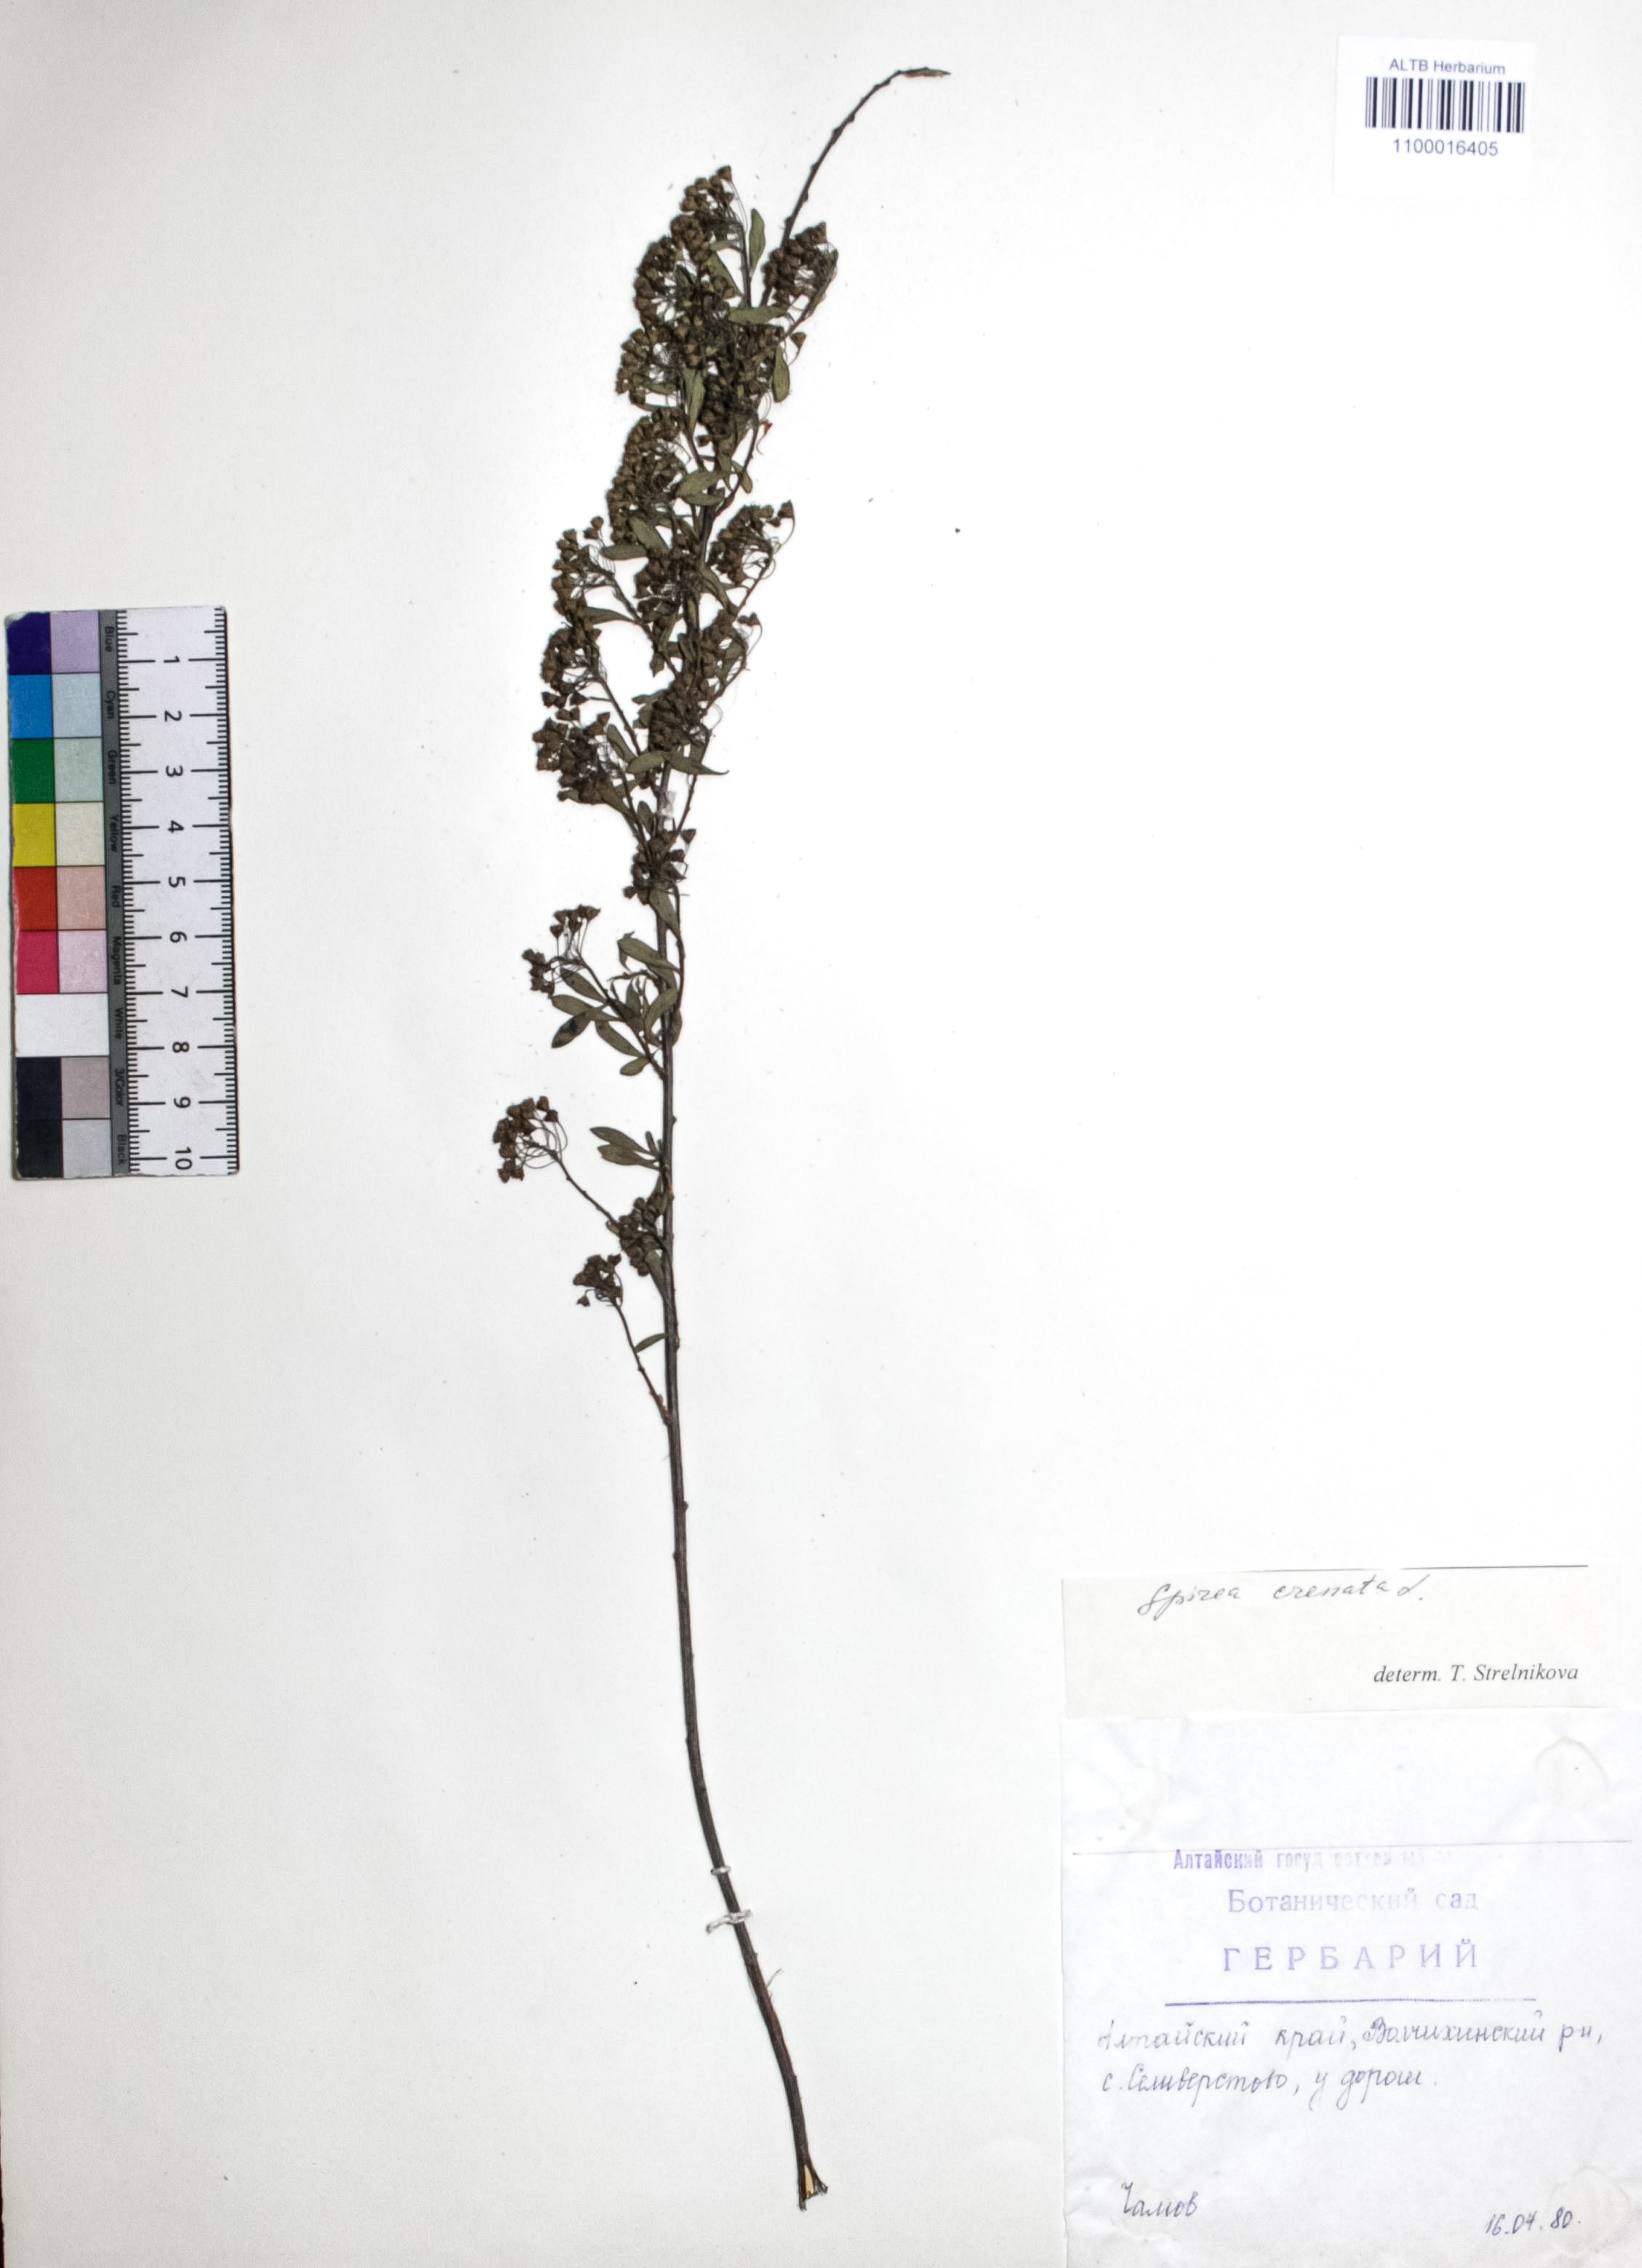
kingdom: Plantae
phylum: Tracheophyta
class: Magnoliopsida
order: Rosales
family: Rosaceae
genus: Spiraea
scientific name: Spiraea crenata
